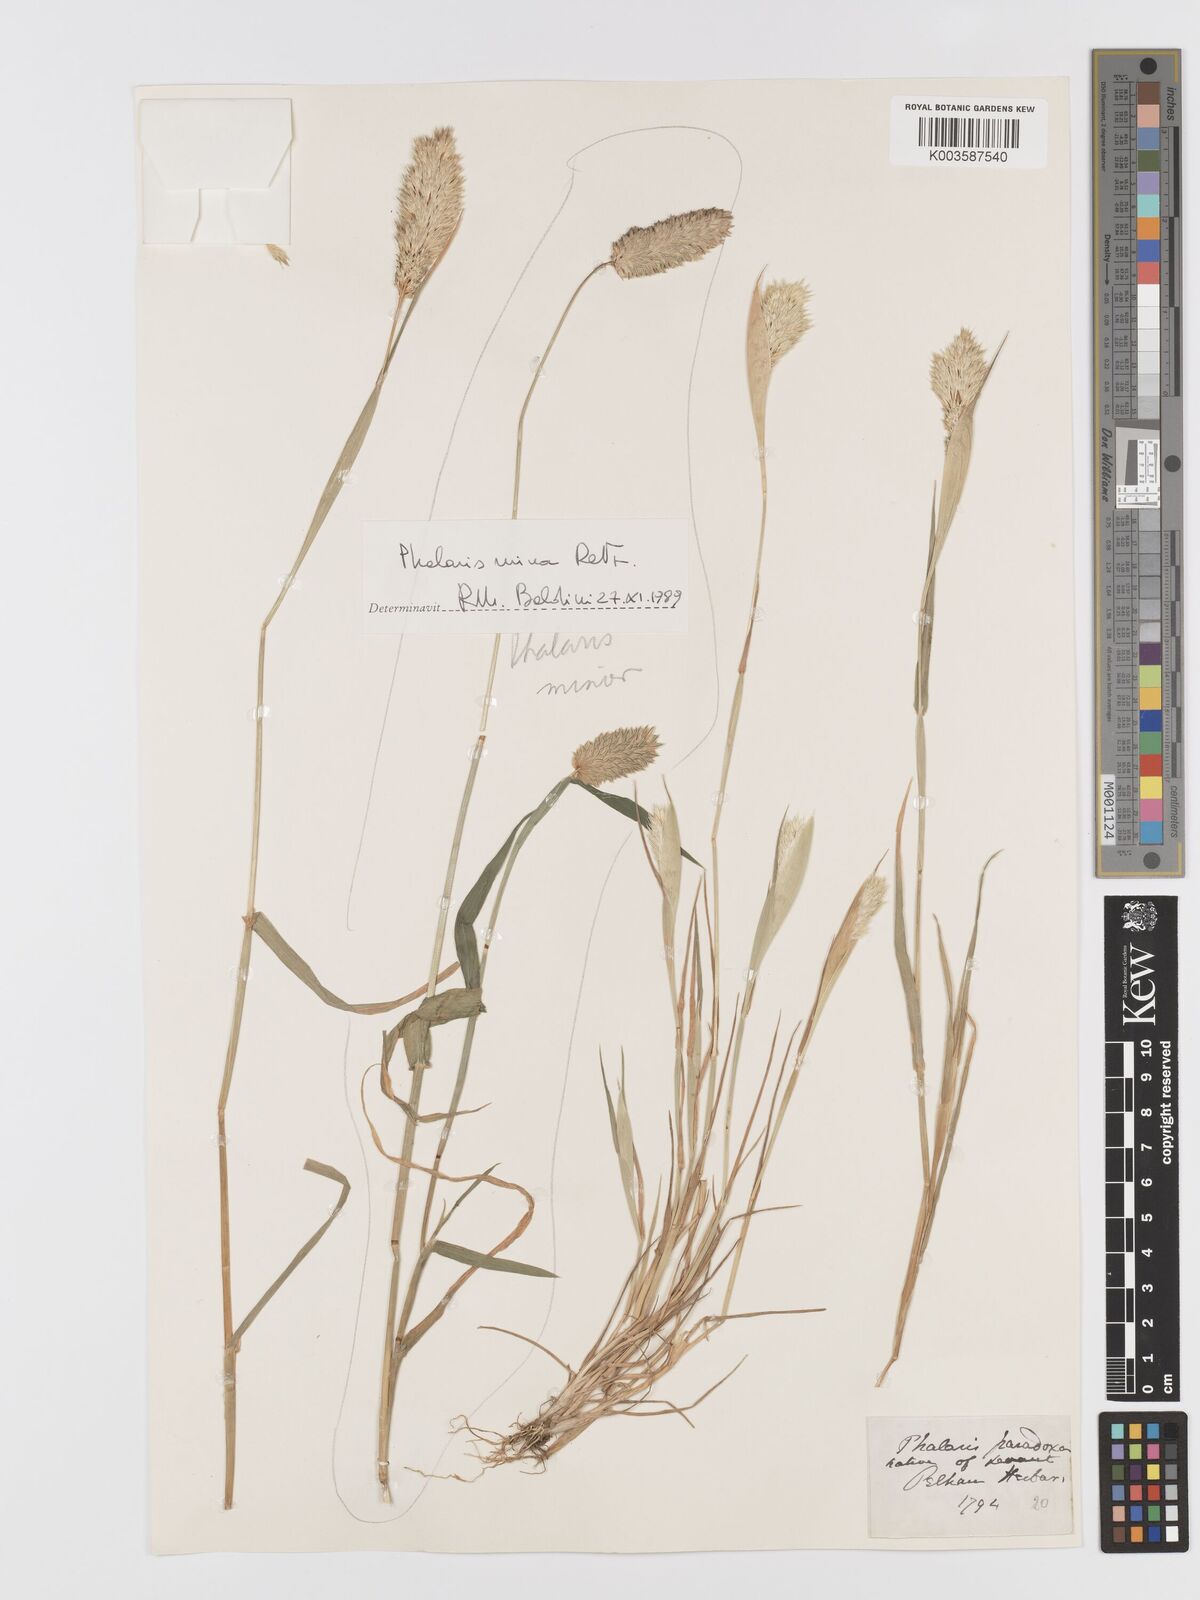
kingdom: Plantae
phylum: Tracheophyta
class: Liliopsida
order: Poales
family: Poaceae
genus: Phalaris
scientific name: Phalaris paradoxa
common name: Awned canary-grass
